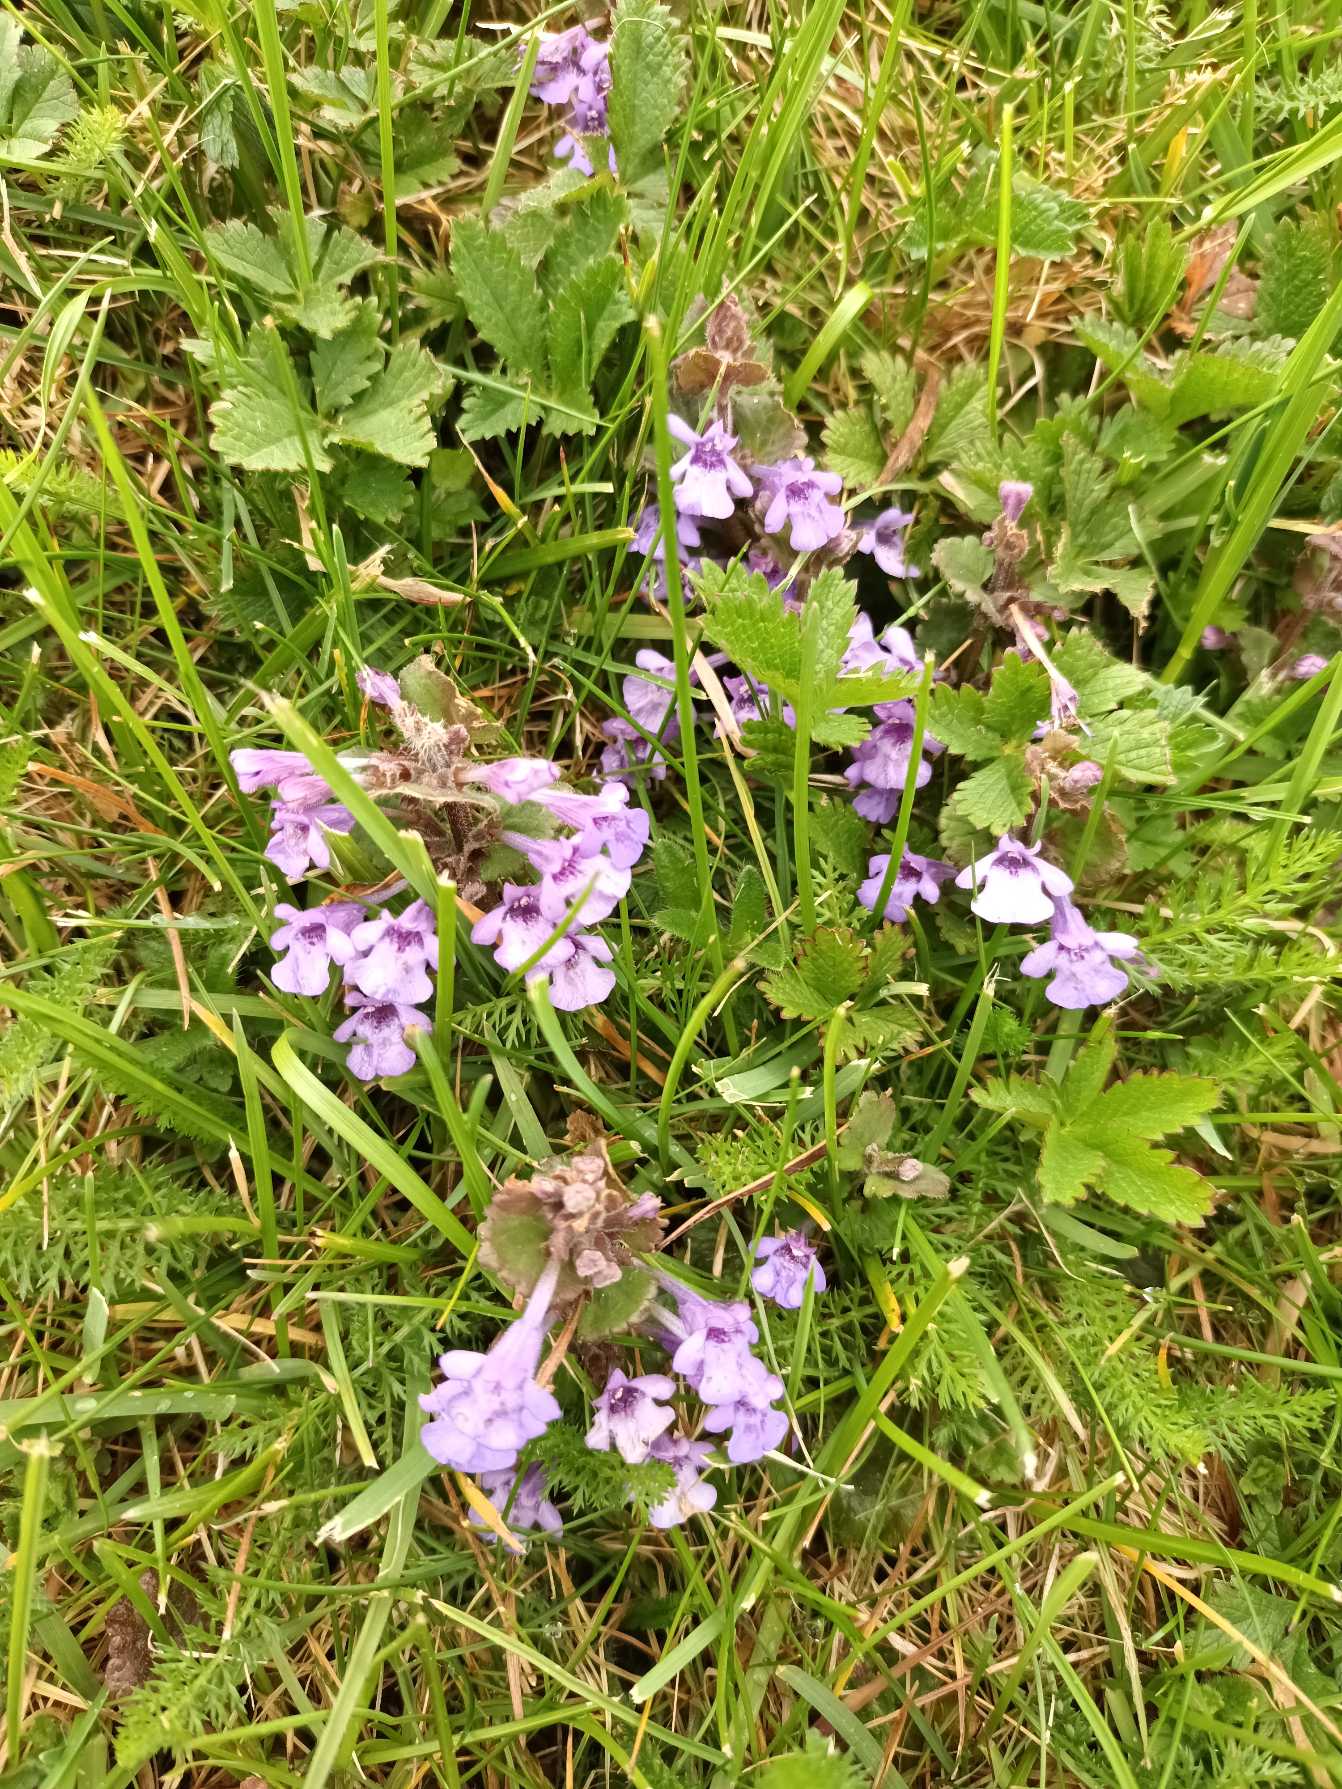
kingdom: Plantae
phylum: Tracheophyta
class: Magnoliopsida
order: Lamiales
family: Lamiaceae
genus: Glechoma
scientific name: Glechoma hederacea
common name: Korsknap
